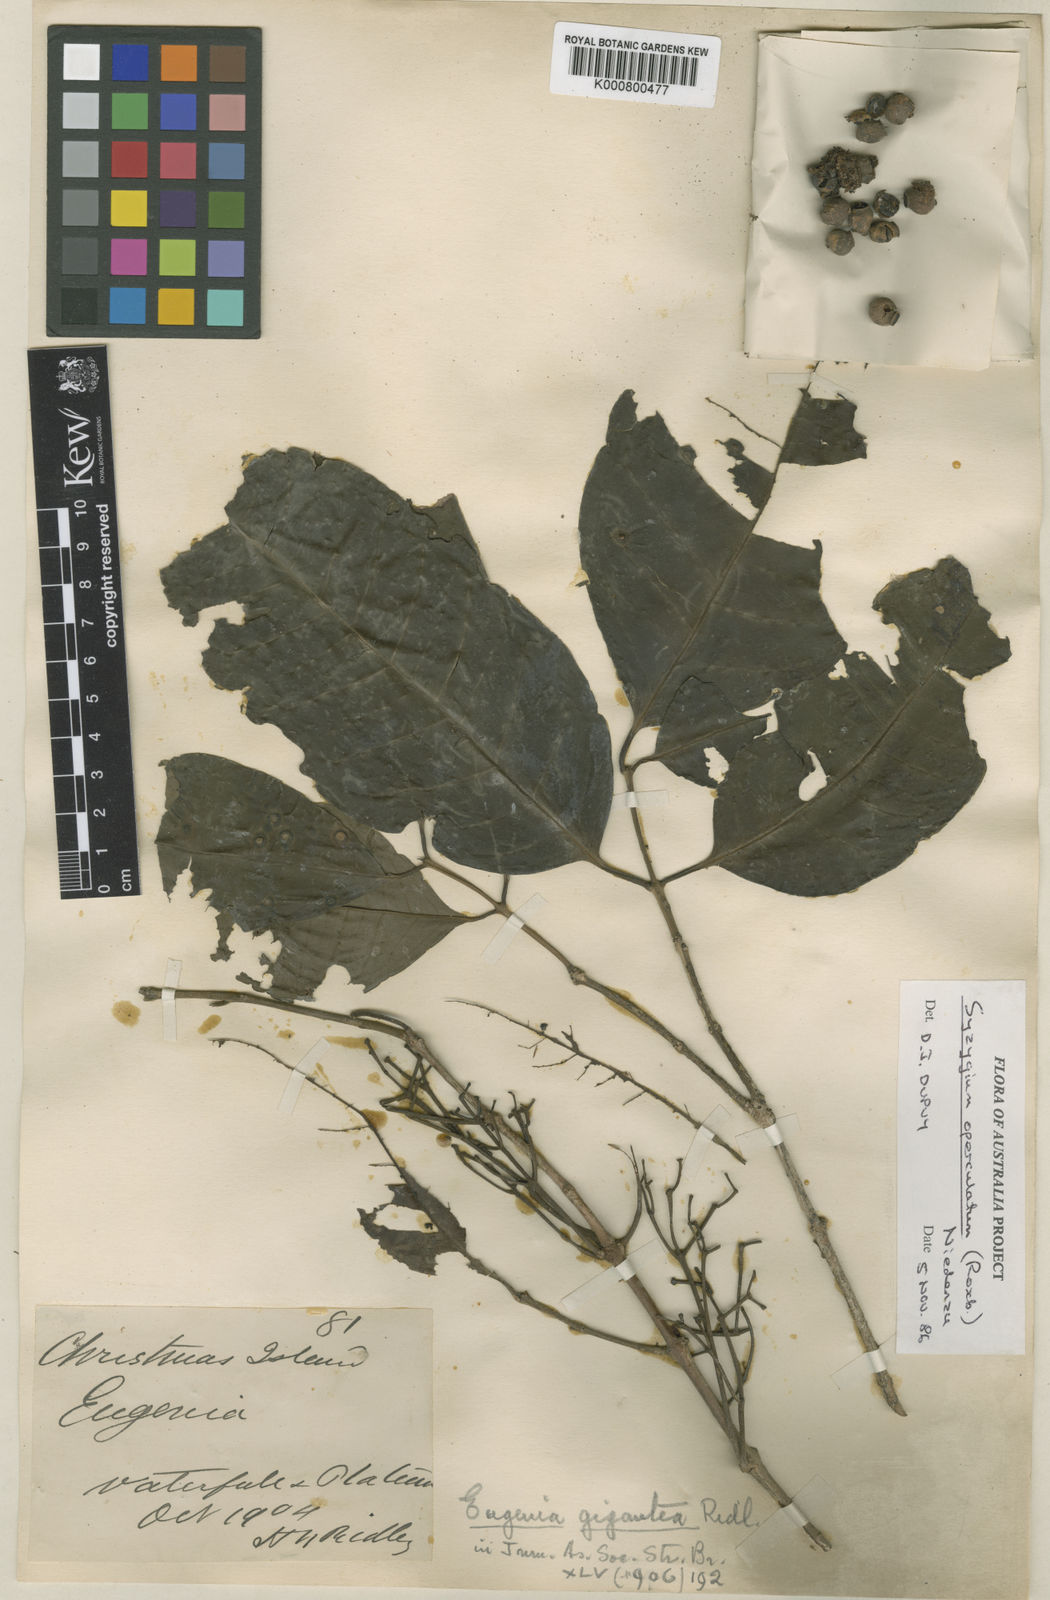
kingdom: Plantae
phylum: Tracheophyta
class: Magnoliopsida
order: Myrtales
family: Myrtaceae
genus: Syzygium
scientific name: Syzygium nervosum
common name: Daly river satinash
